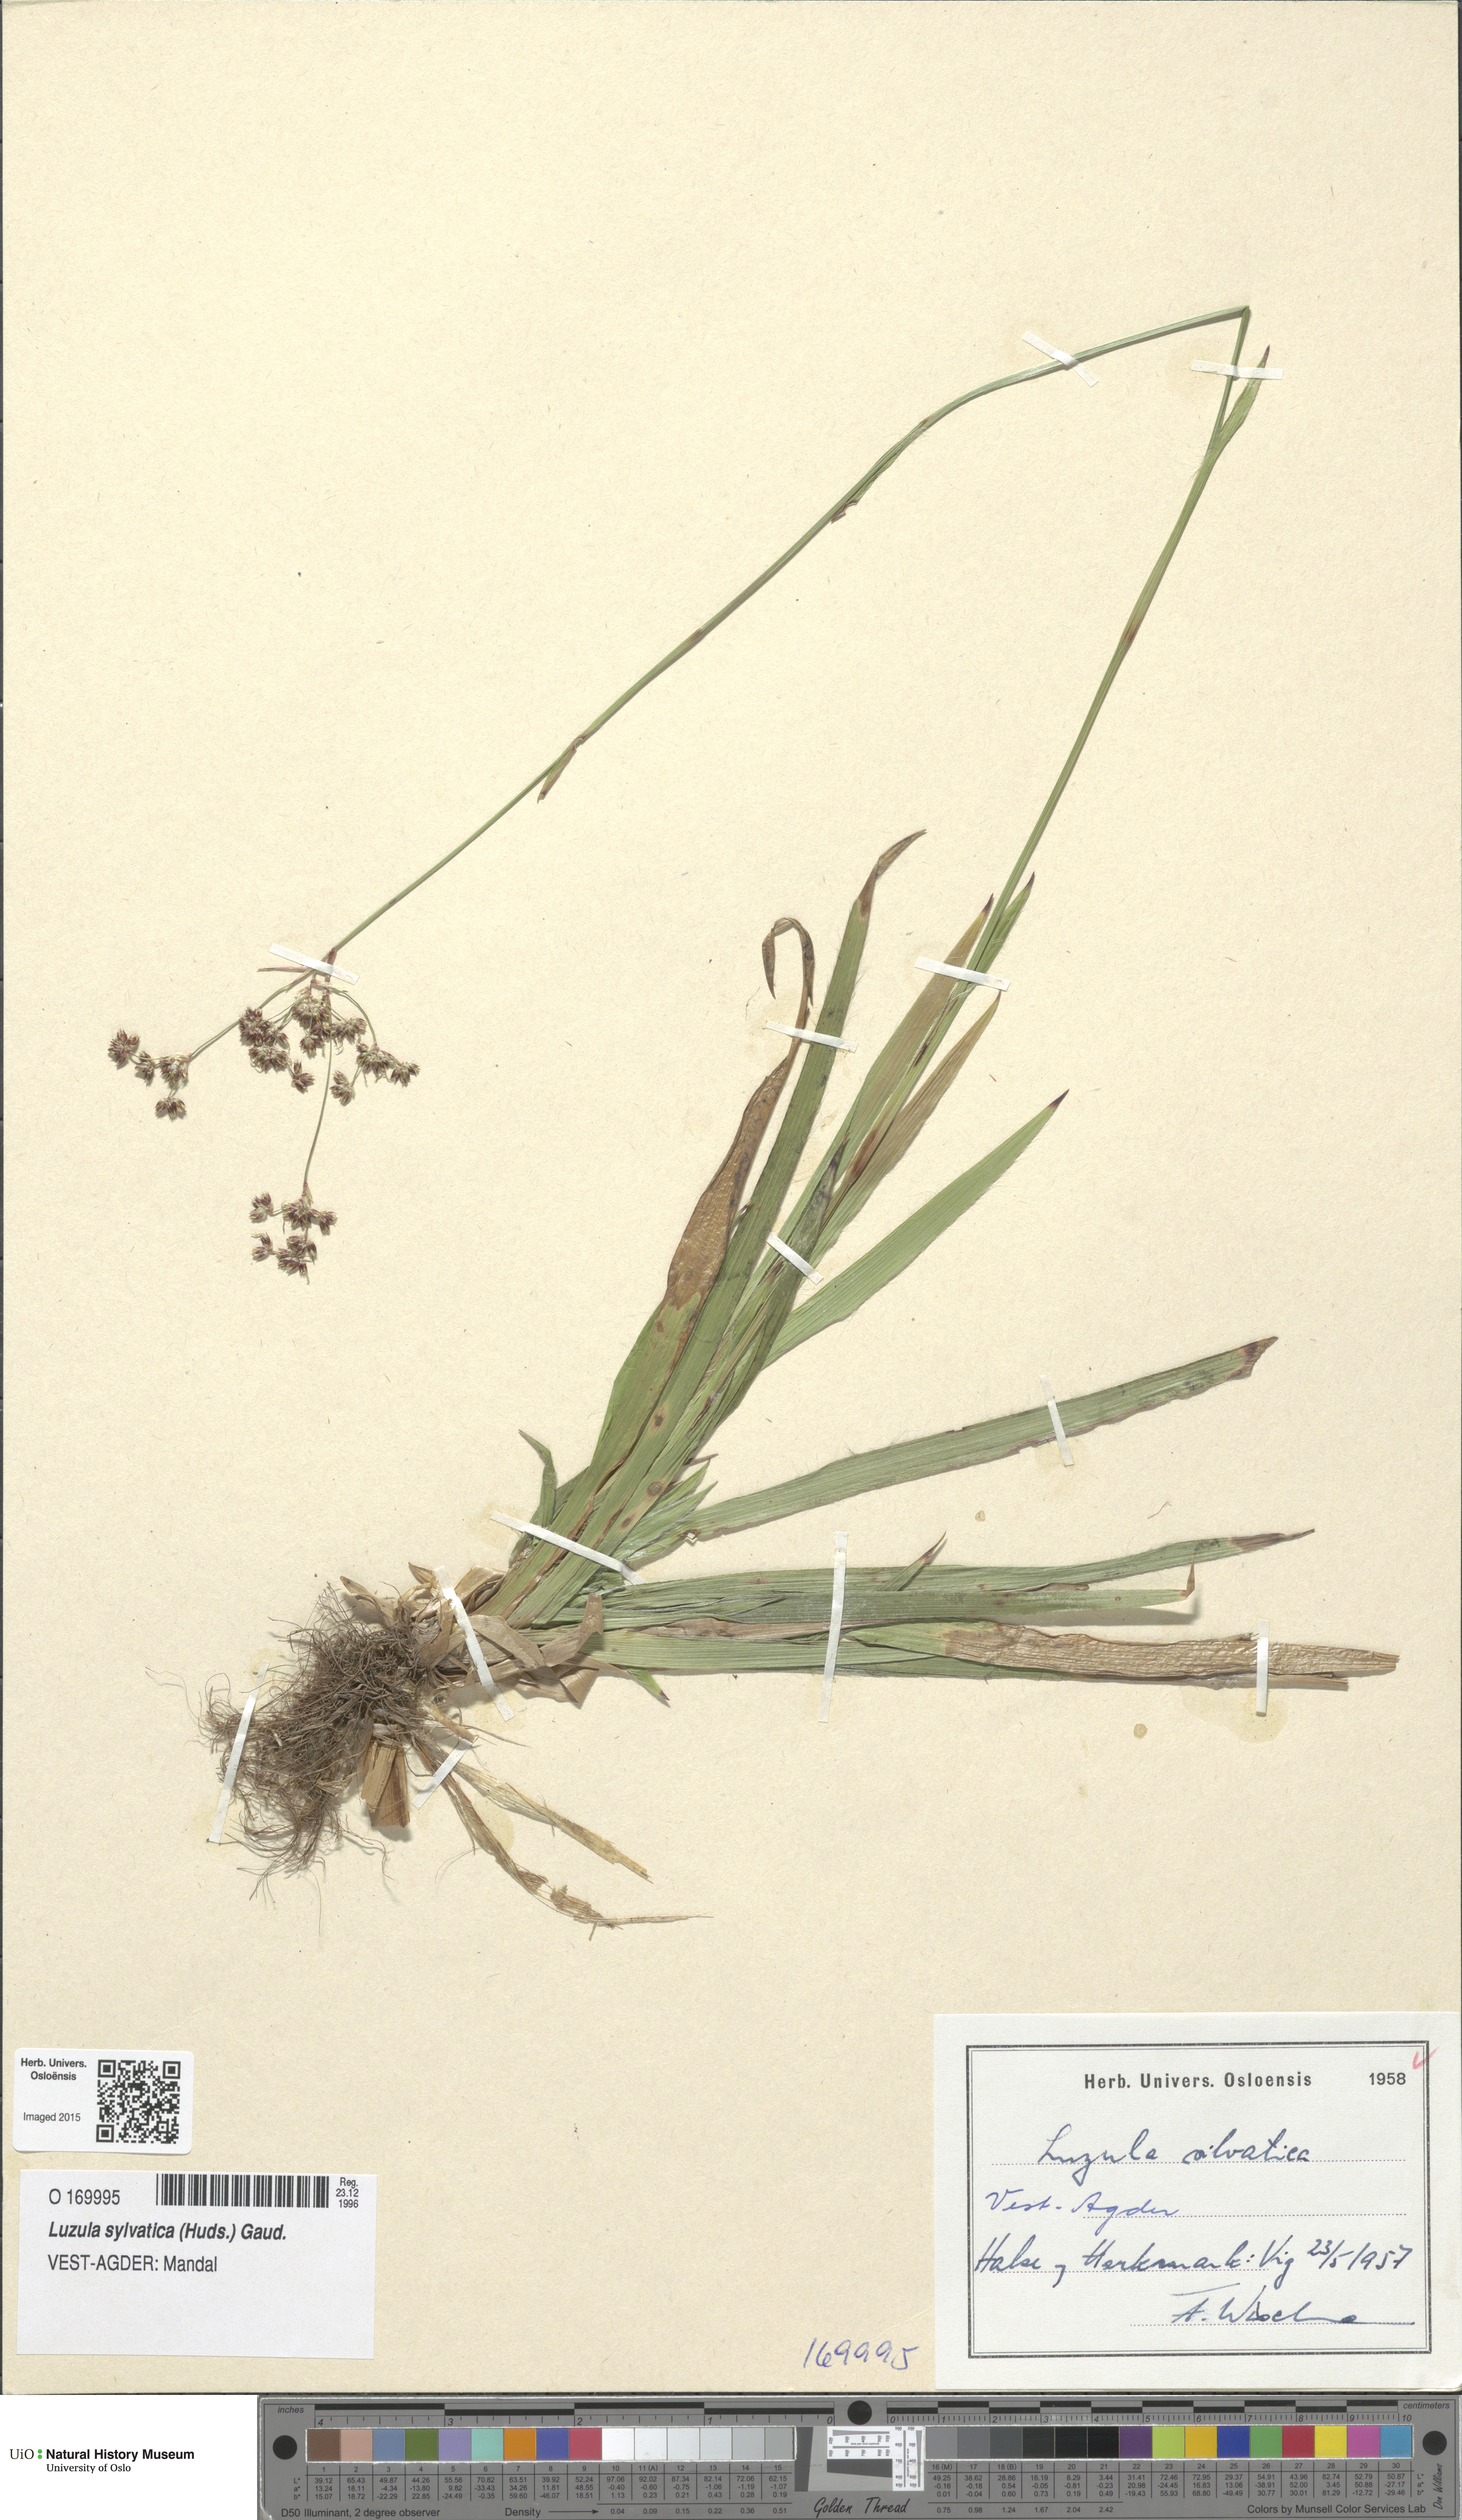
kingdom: Plantae
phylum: Tracheophyta
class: Liliopsida
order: Poales
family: Juncaceae
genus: Luzula
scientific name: Luzula sylvatica
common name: Great wood-rush
